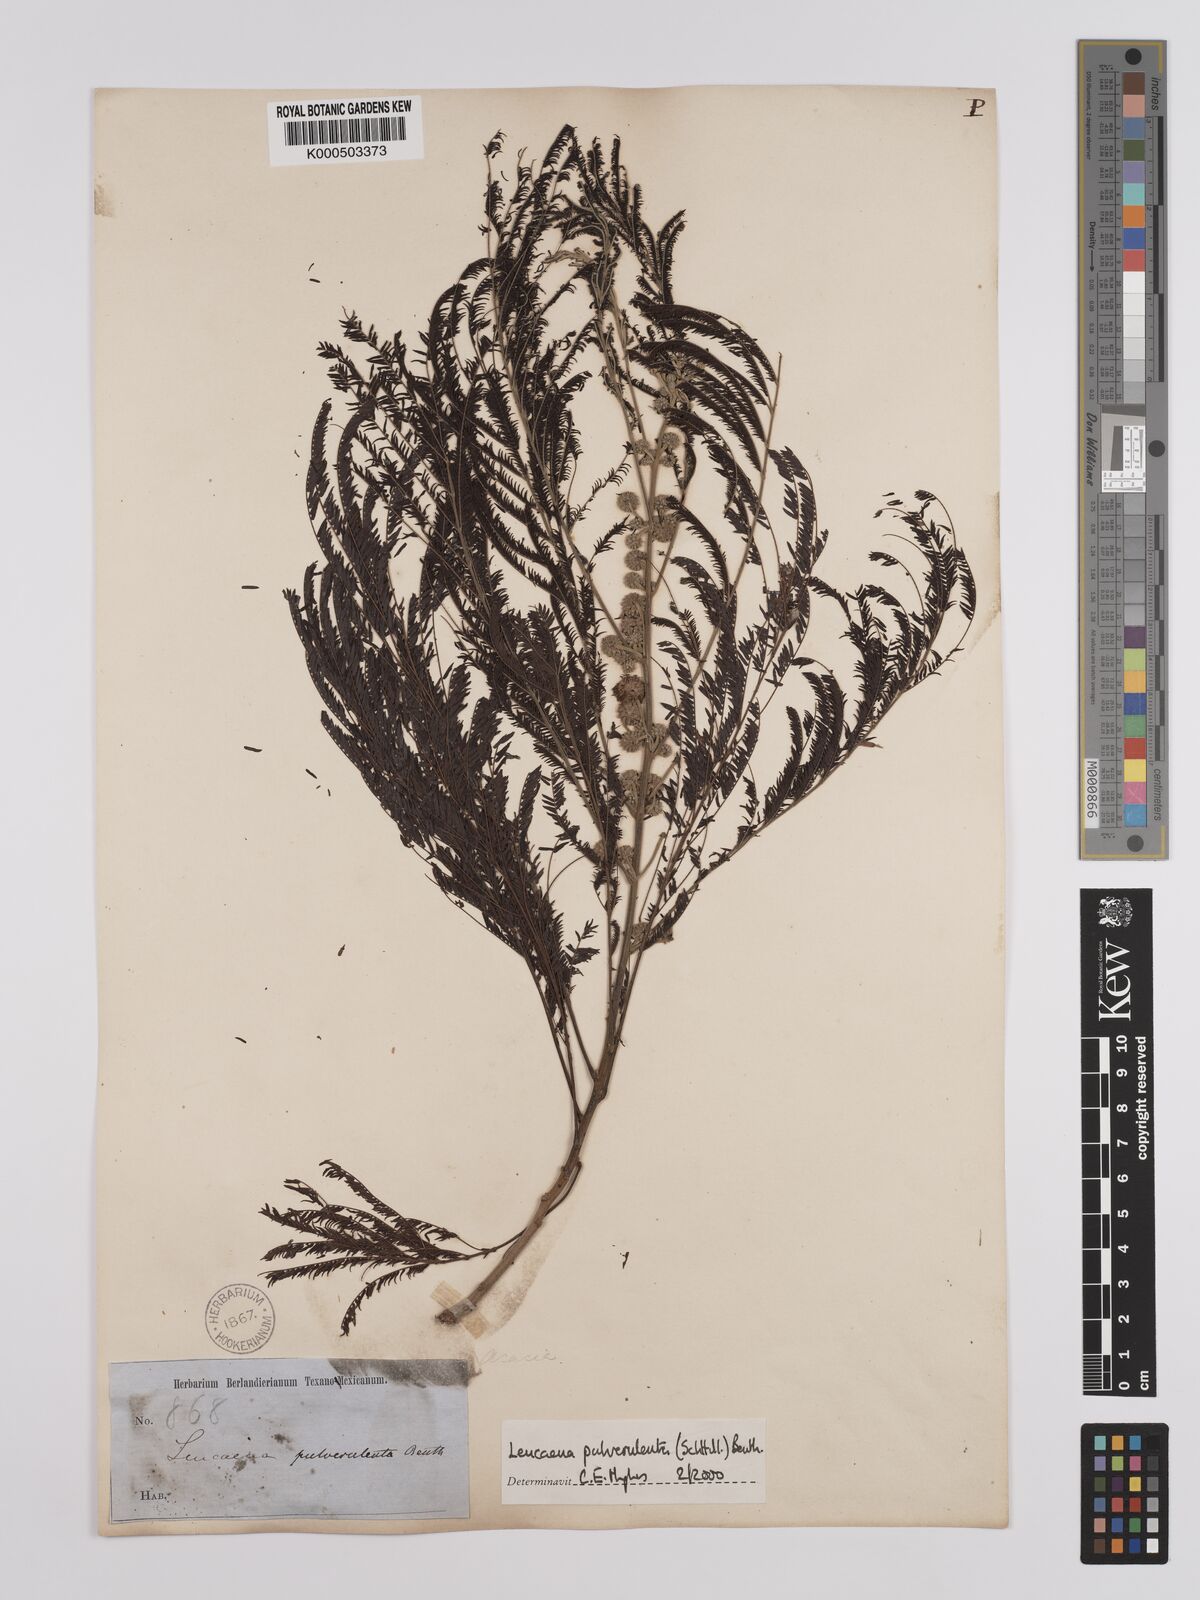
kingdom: Plantae
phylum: Tracheophyta
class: Magnoliopsida
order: Fabales
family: Fabaceae
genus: Leucaena
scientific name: Leucaena pulverulenta
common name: Great leadtree
